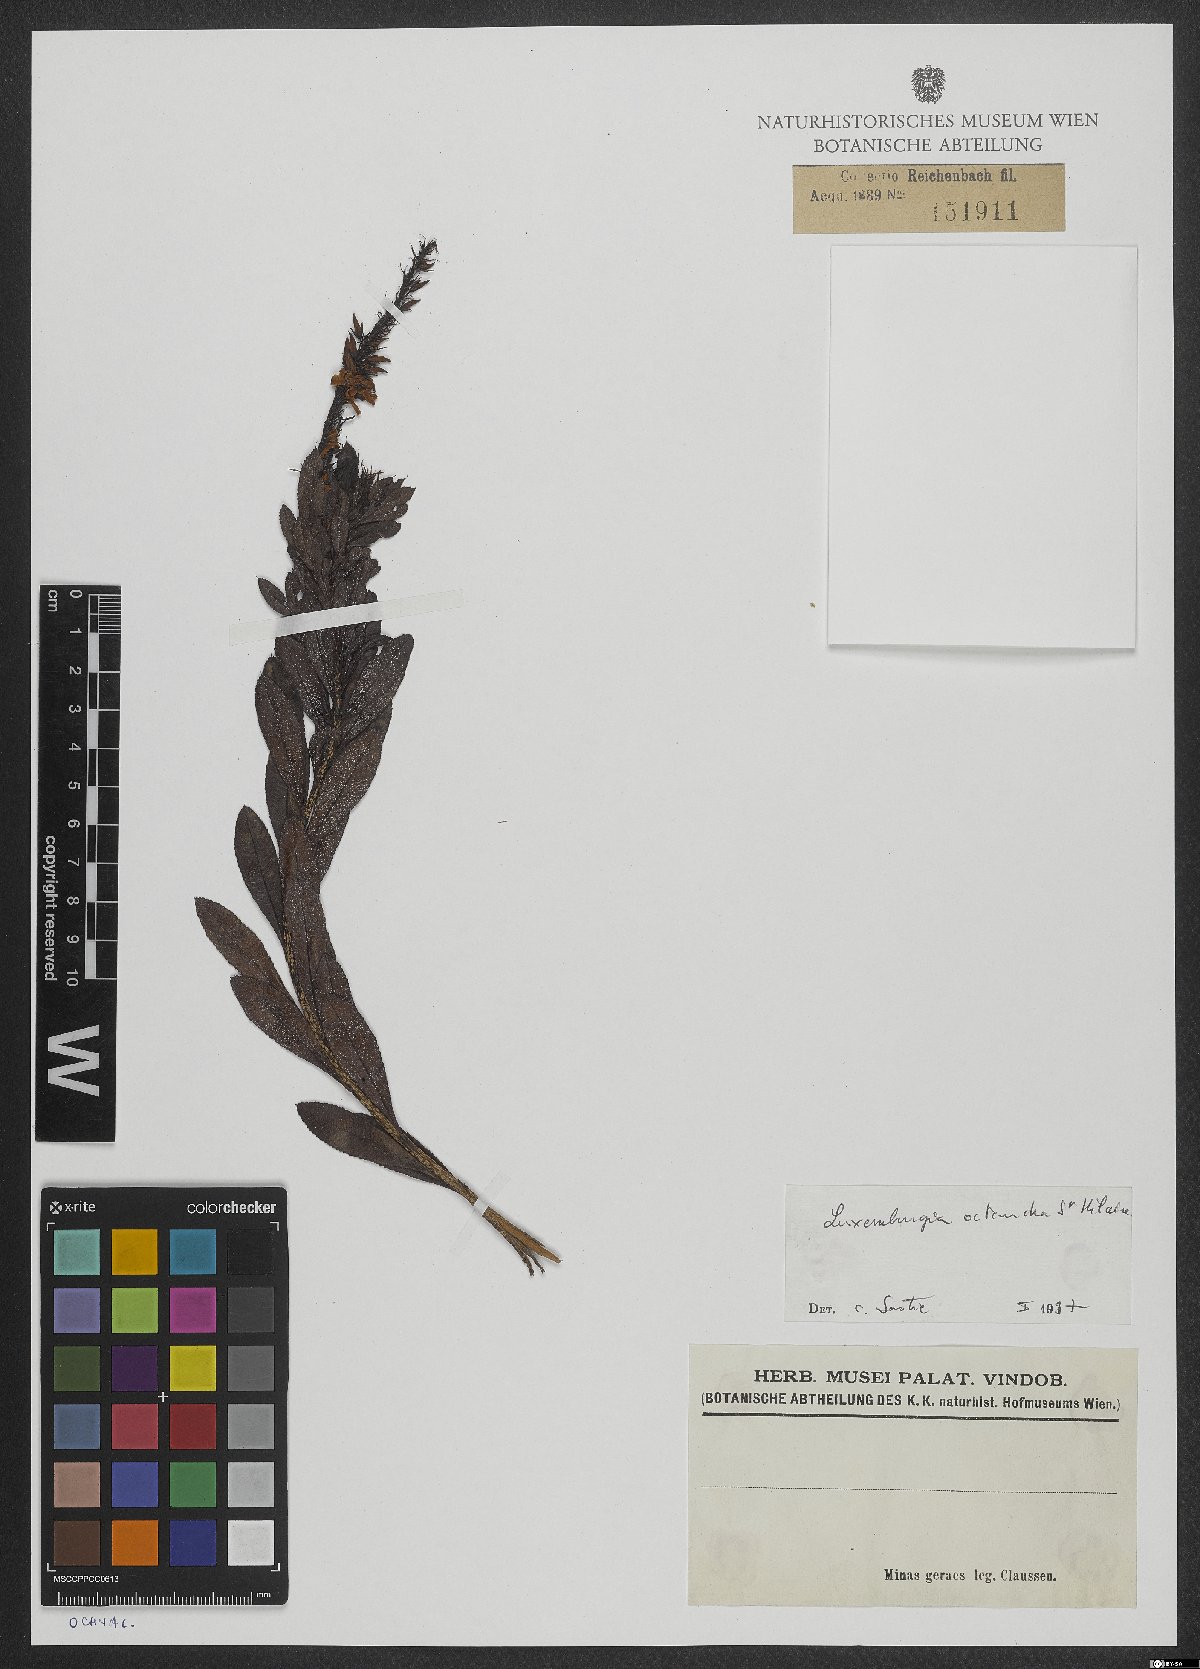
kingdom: Plantae
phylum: Tracheophyta
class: Magnoliopsida
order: Malpighiales
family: Ochnaceae
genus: Luxemburgia
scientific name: Luxemburgia octandra
